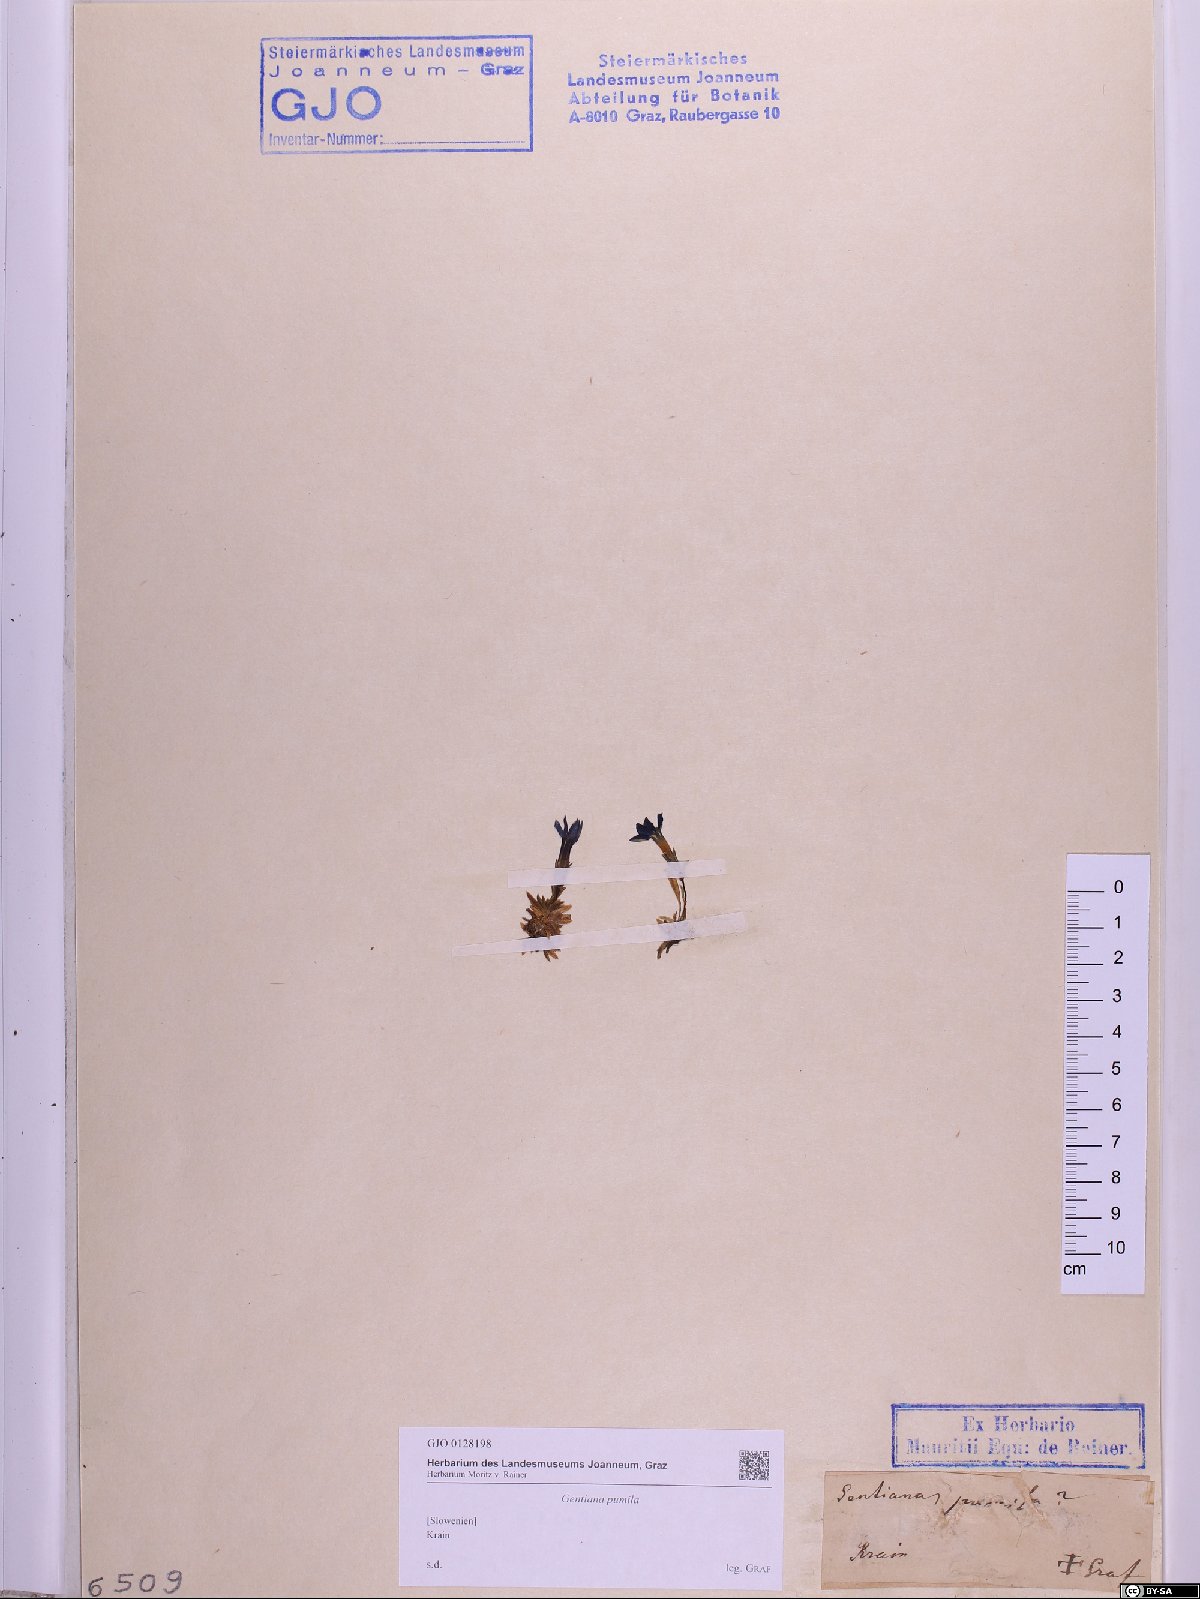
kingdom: Plantae
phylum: Tracheophyta
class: Magnoliopsida
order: Gentianales
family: Gentianaceae
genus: Gentiana
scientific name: Gentiana pumila
